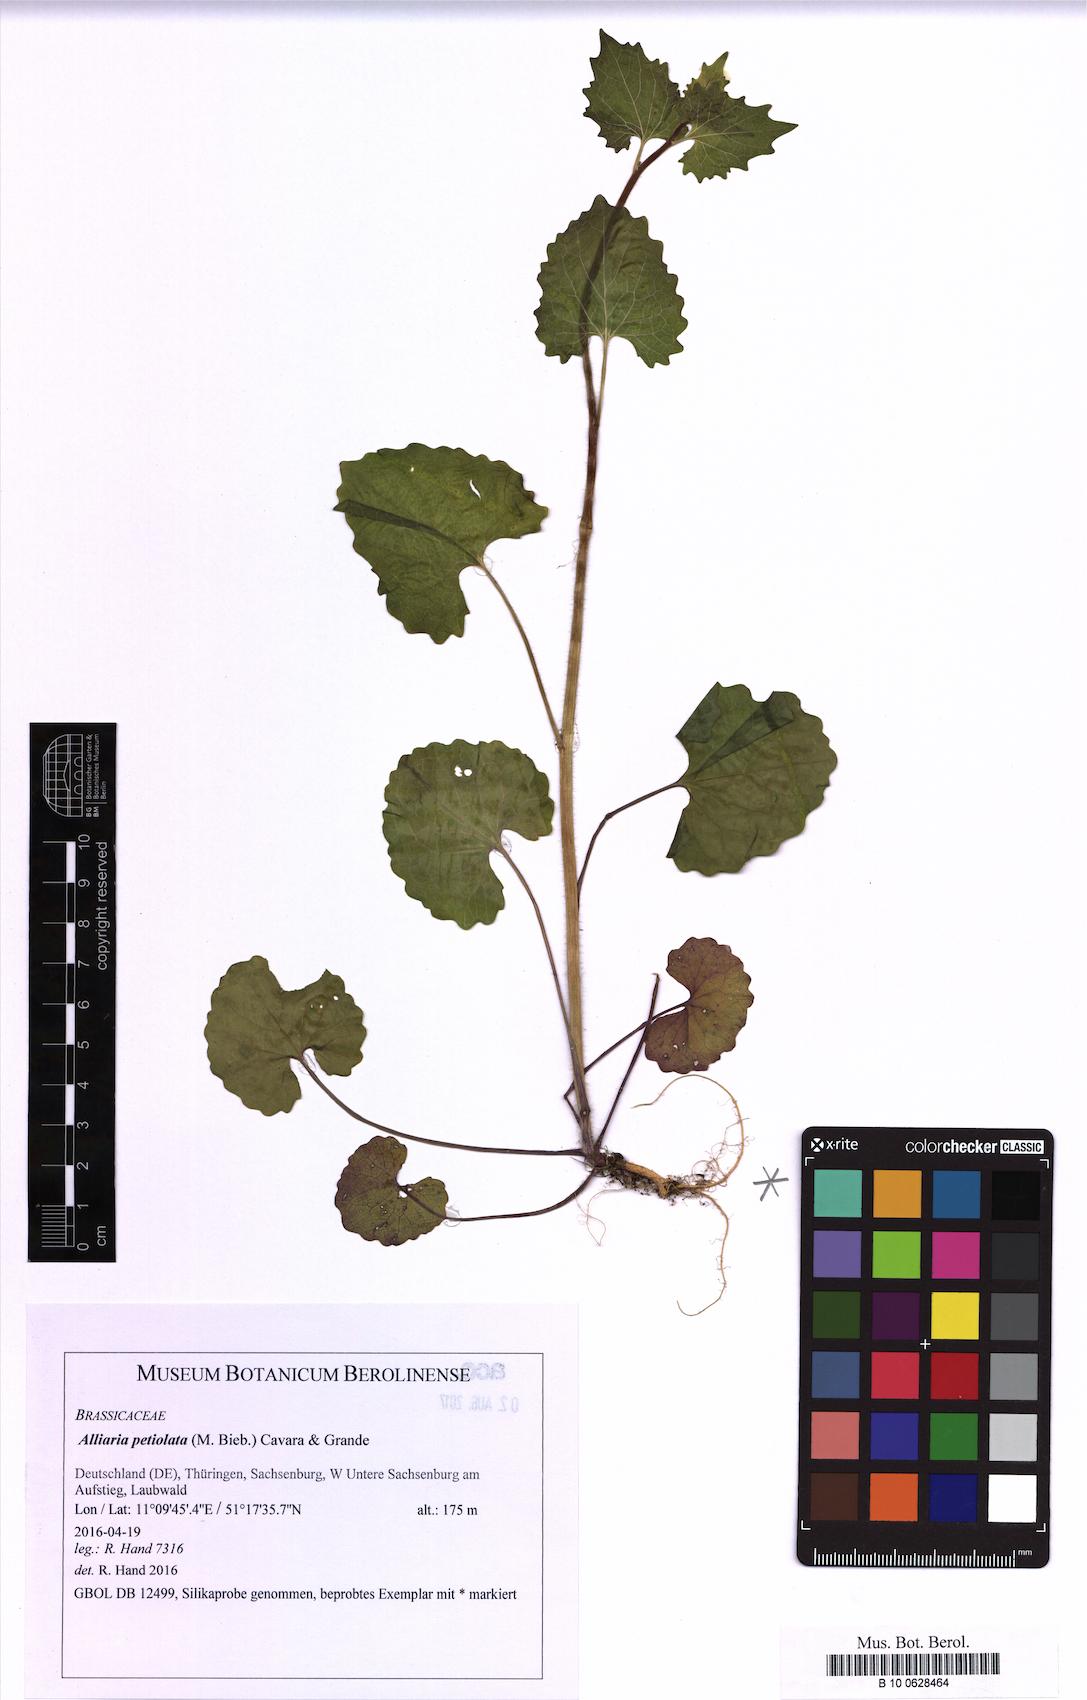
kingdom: Plantae
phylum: Tracheophyta
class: Magnoliopsida
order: Brassicales
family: Brassicaceae
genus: Alliaria
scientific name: Alliaria petiolata
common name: Garlic mustard
